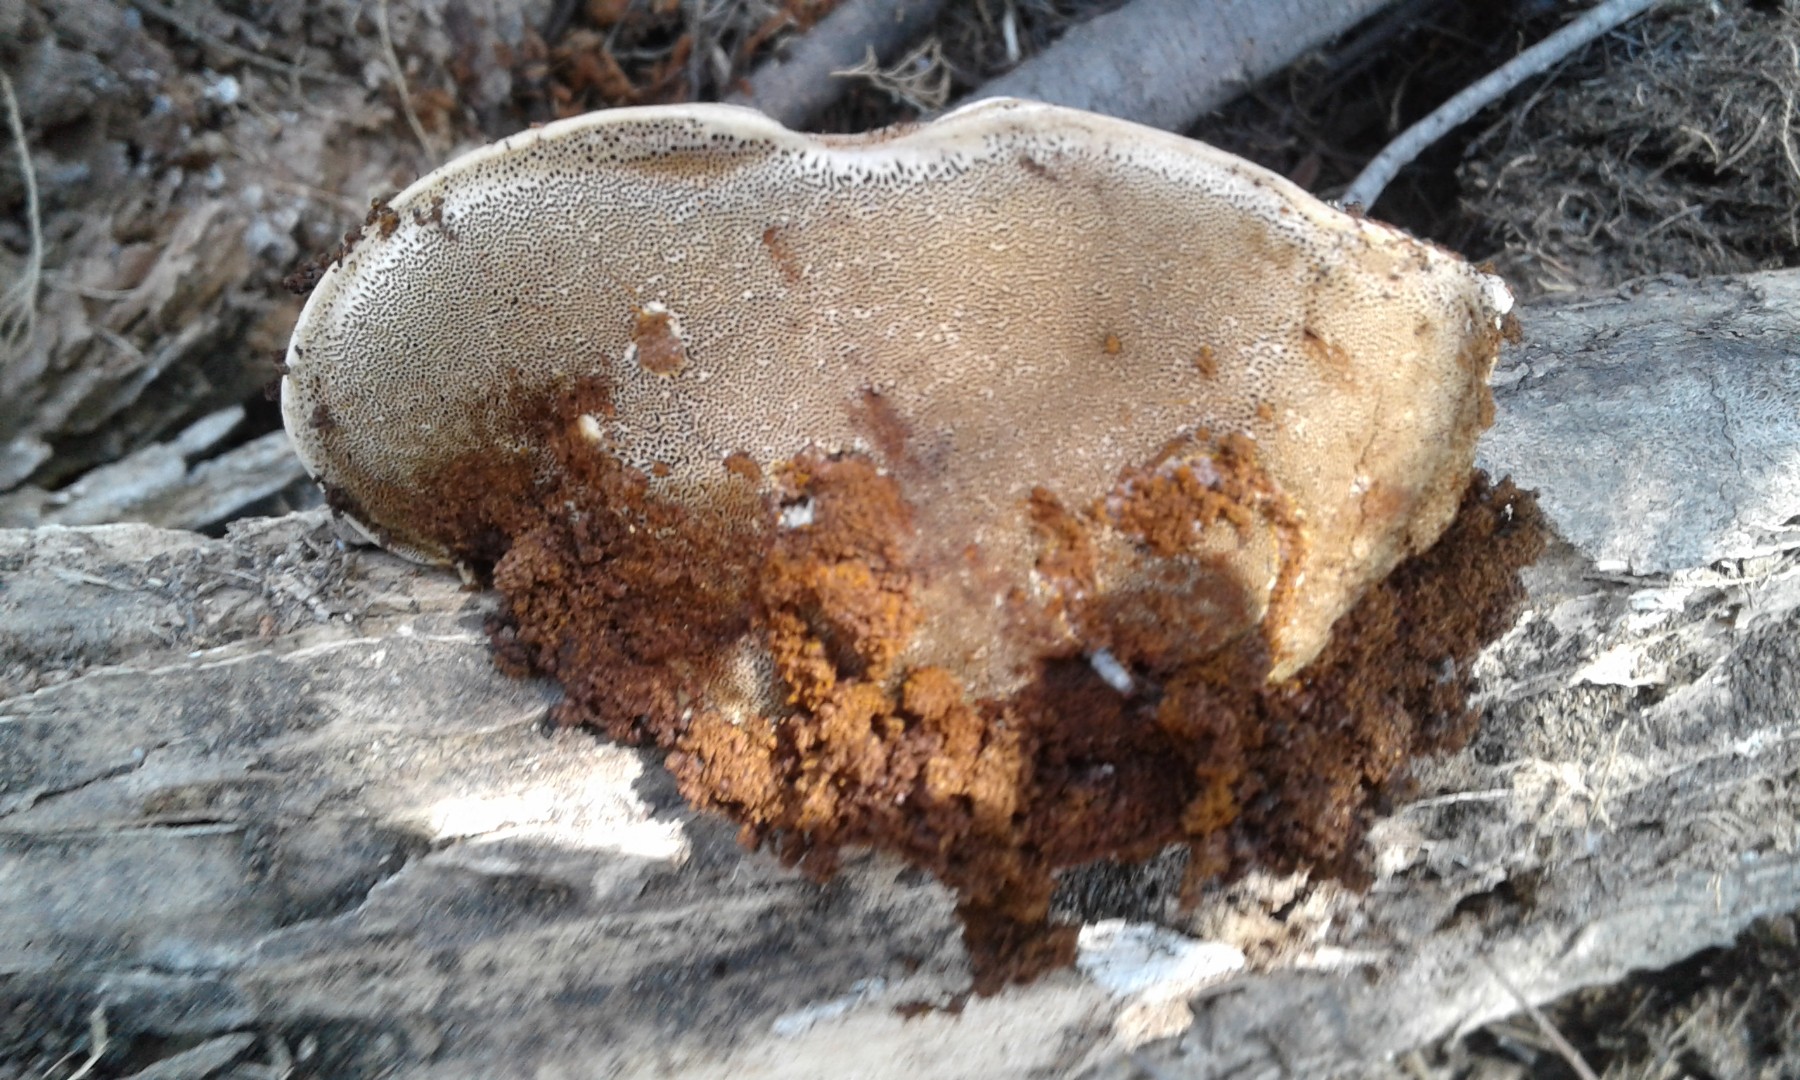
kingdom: Fungi
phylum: Basidiomycota
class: Agaricomycetes
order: Hymenochaetales
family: Hymenochaetaceae
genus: Inocutis
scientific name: Inocutis tamaricis
